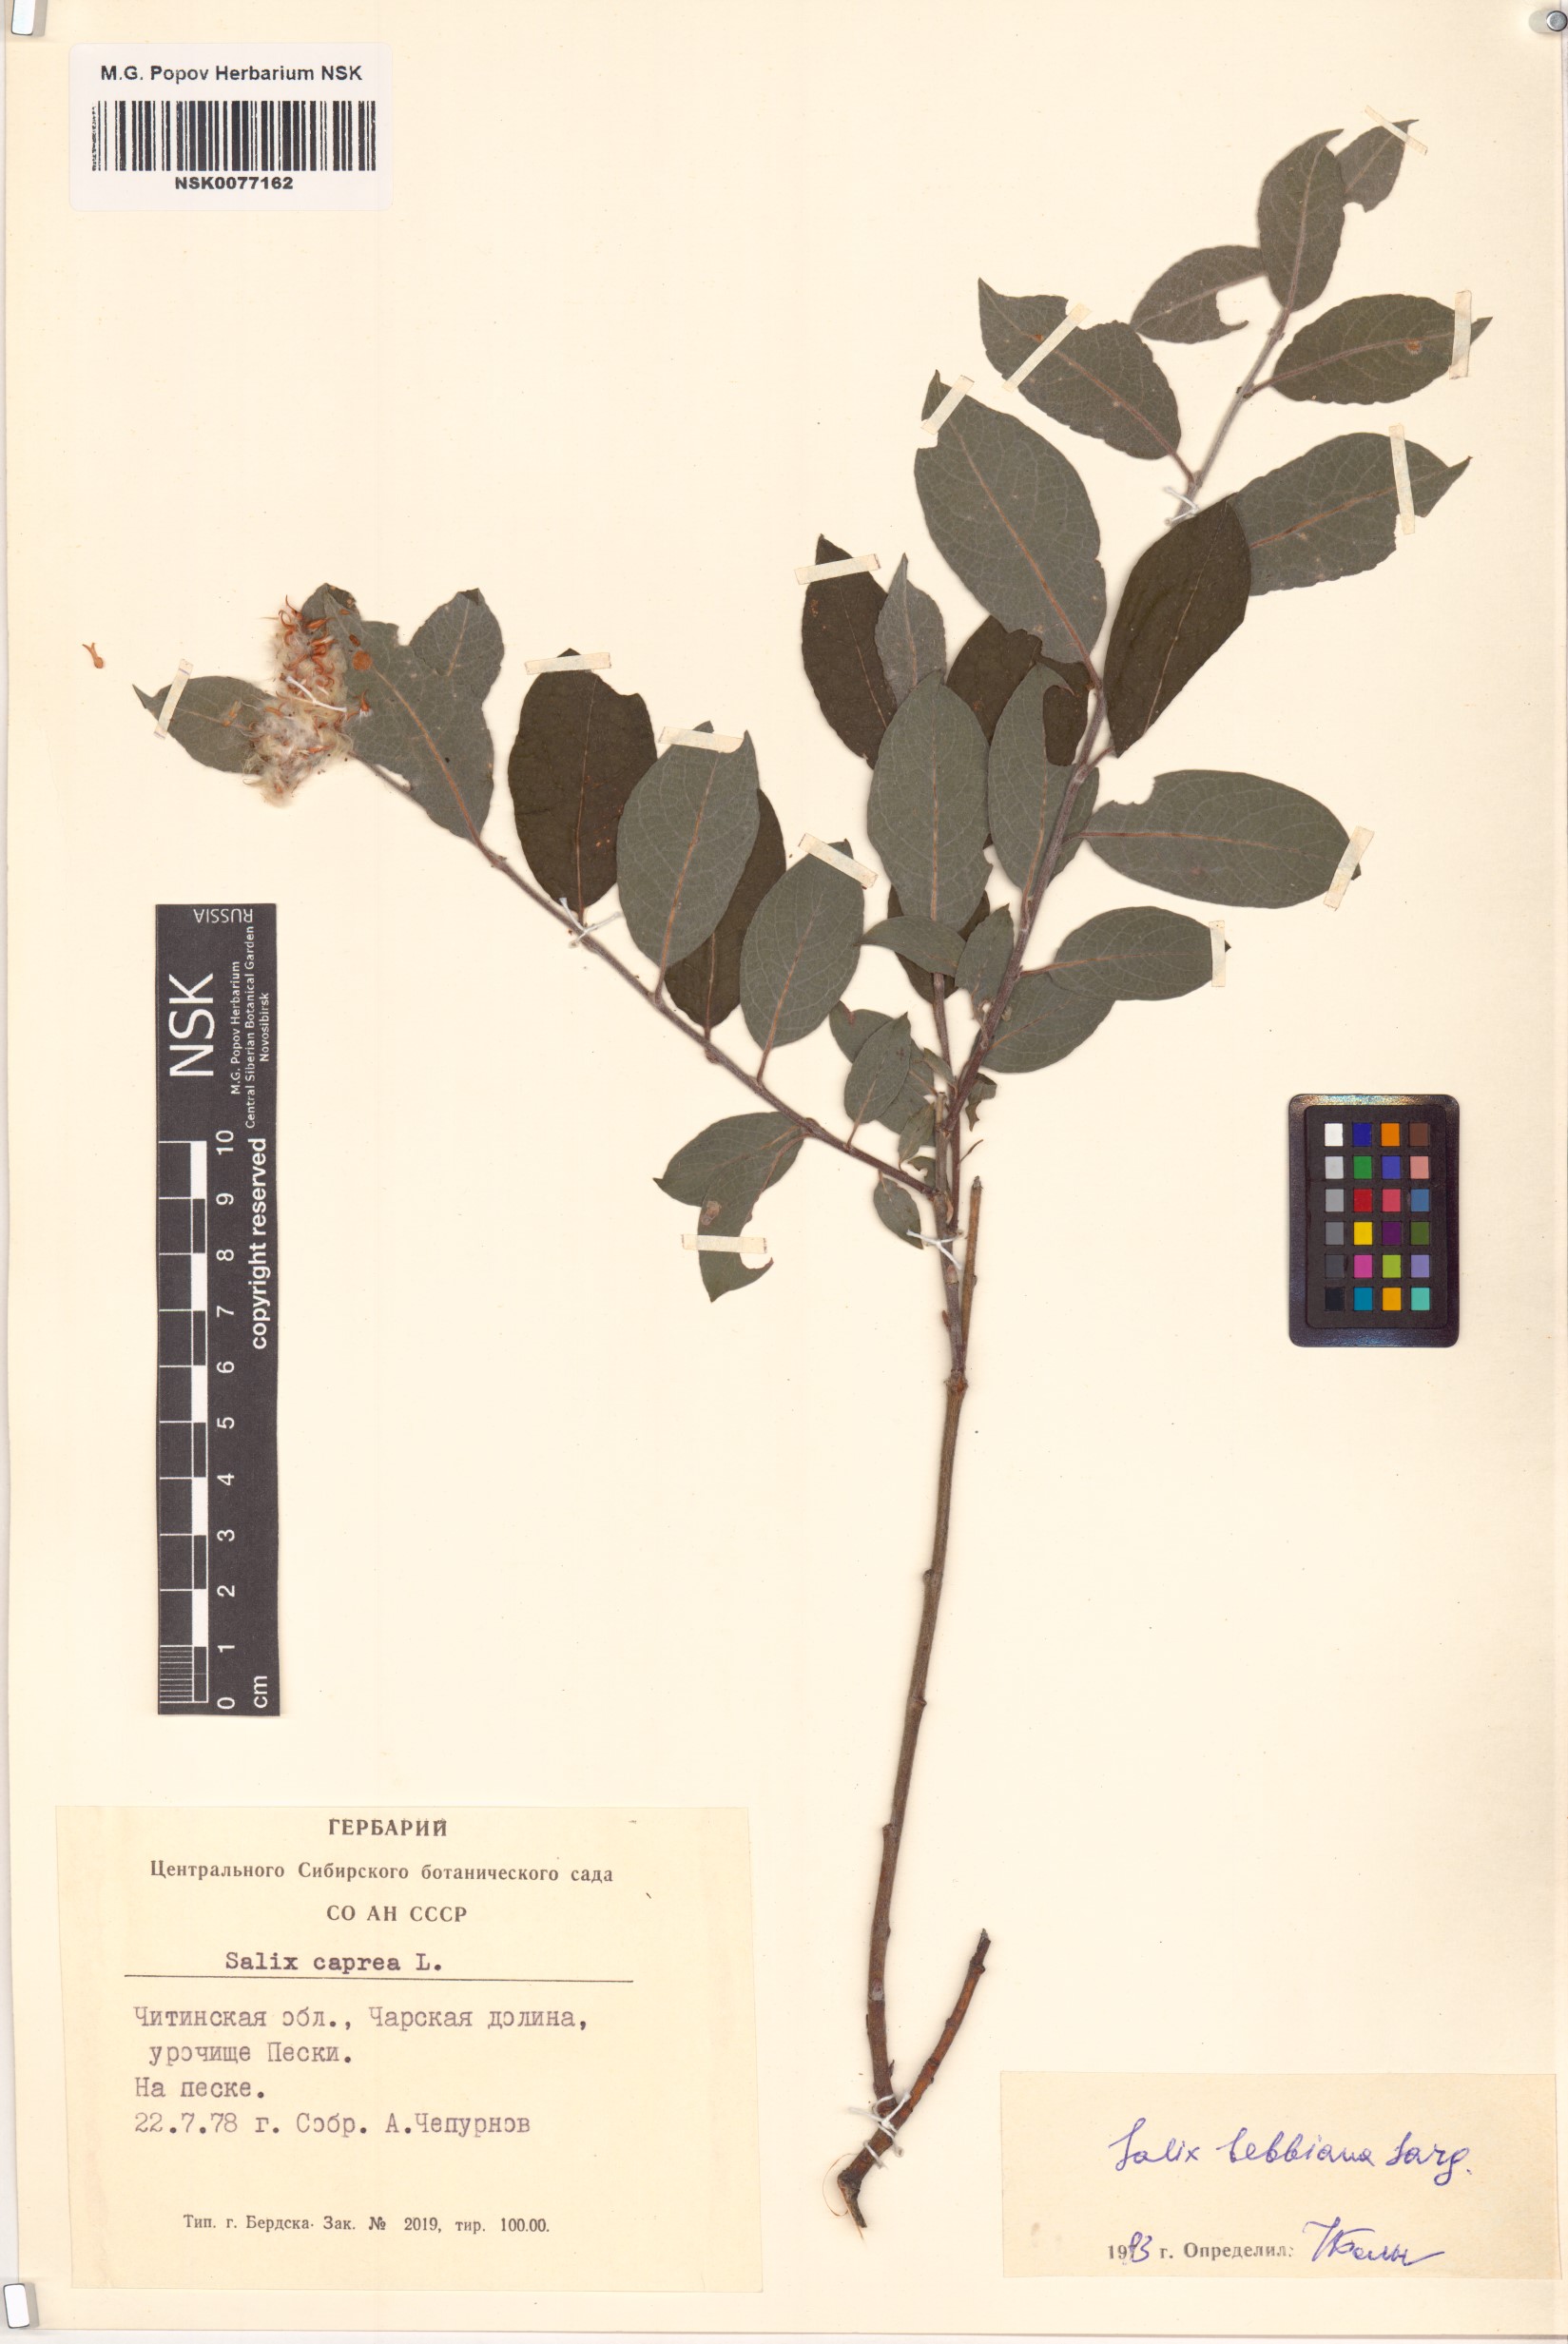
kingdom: Plantae
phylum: Tracheophyta
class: Magnoliopsida
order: Malpighiales
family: Salicaceae
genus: Salix
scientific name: Salix bebbiana
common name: Bebb's willow
